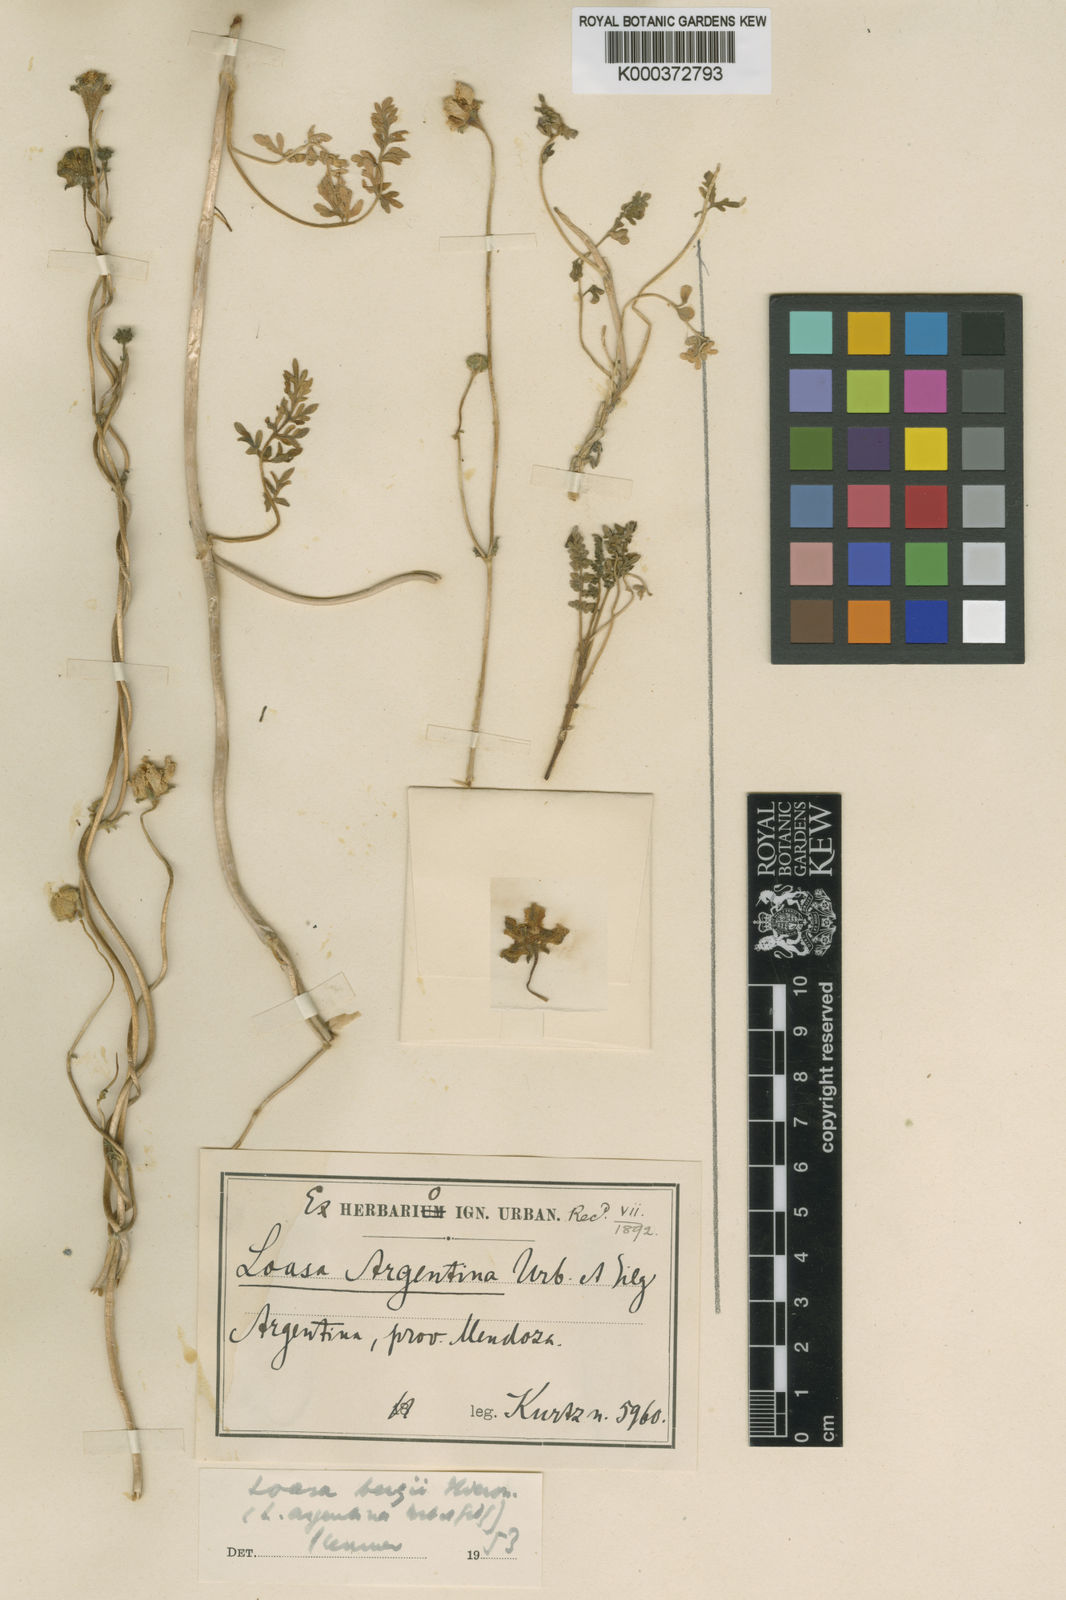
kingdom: Plantae
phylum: Tracheophyta
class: Magnoliopsida
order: Cornales
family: Loasaceae
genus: Pinnasa
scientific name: Pinnasa bergii
